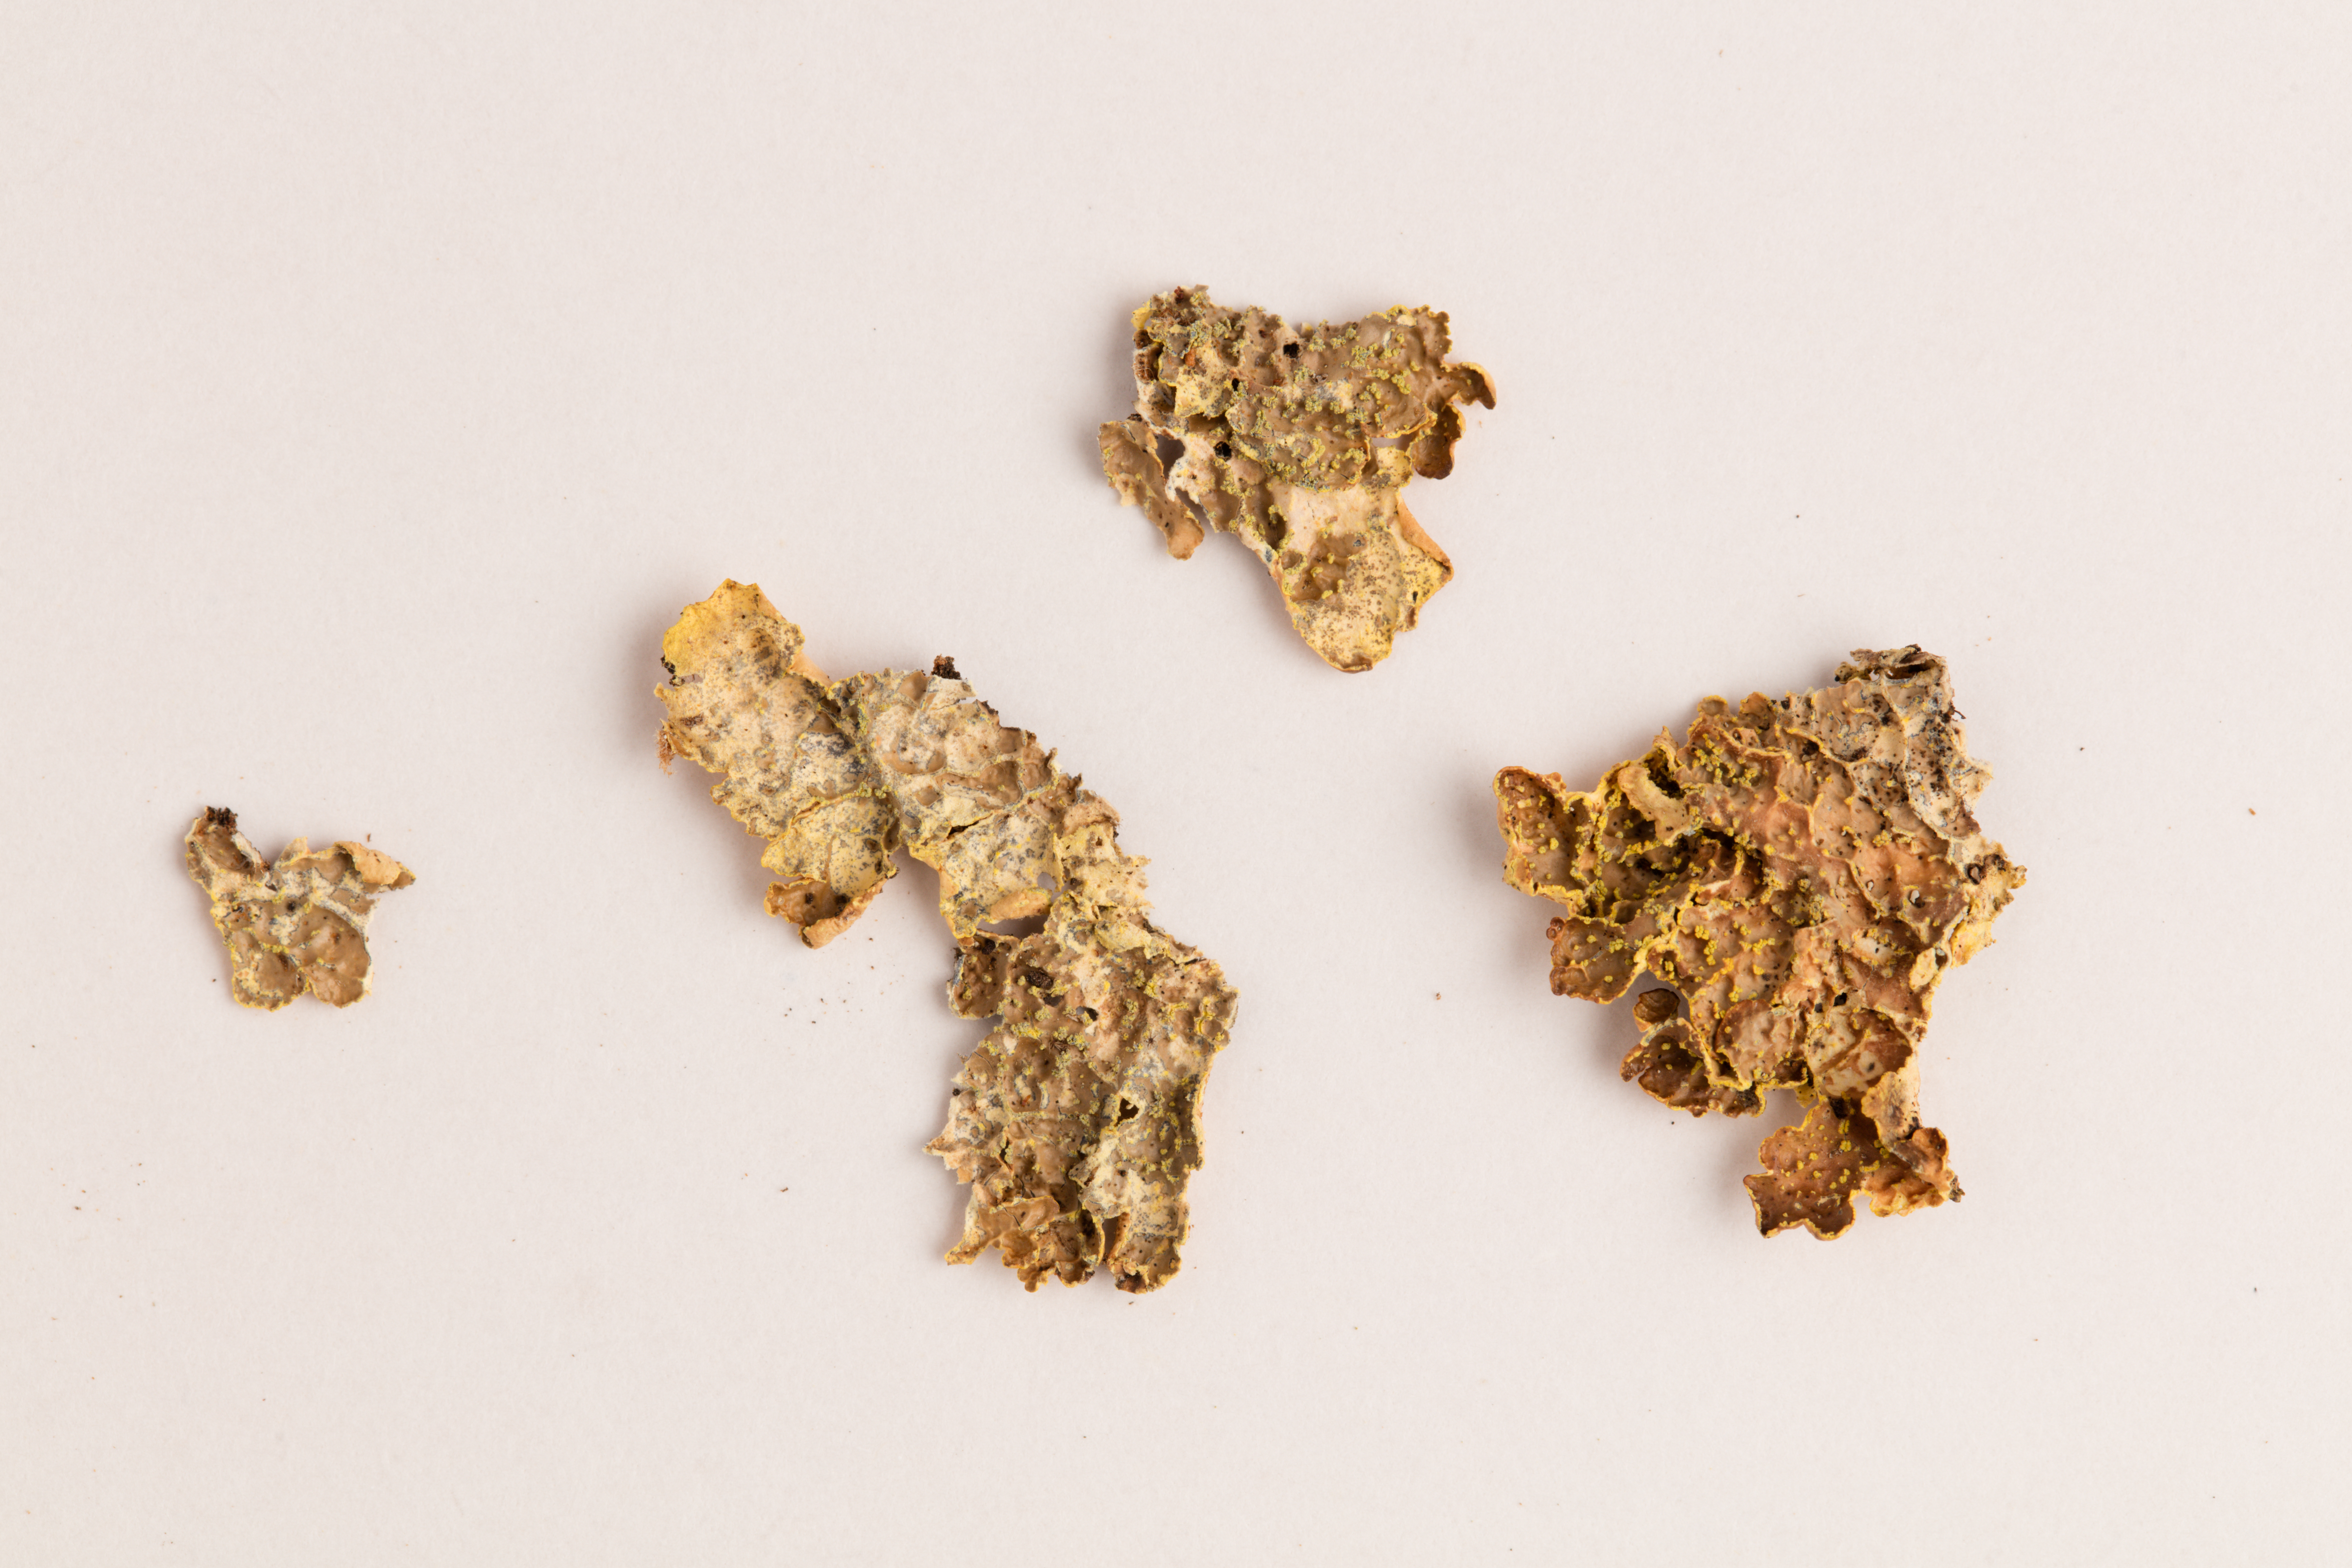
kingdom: Fungi
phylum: Ascomycota
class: Lecanoromycetes
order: Peltigerales
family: Lobariaceae
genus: Pseudocyphellaria
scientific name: Pseudocyphellaria crocata
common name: Golden specklebelly
